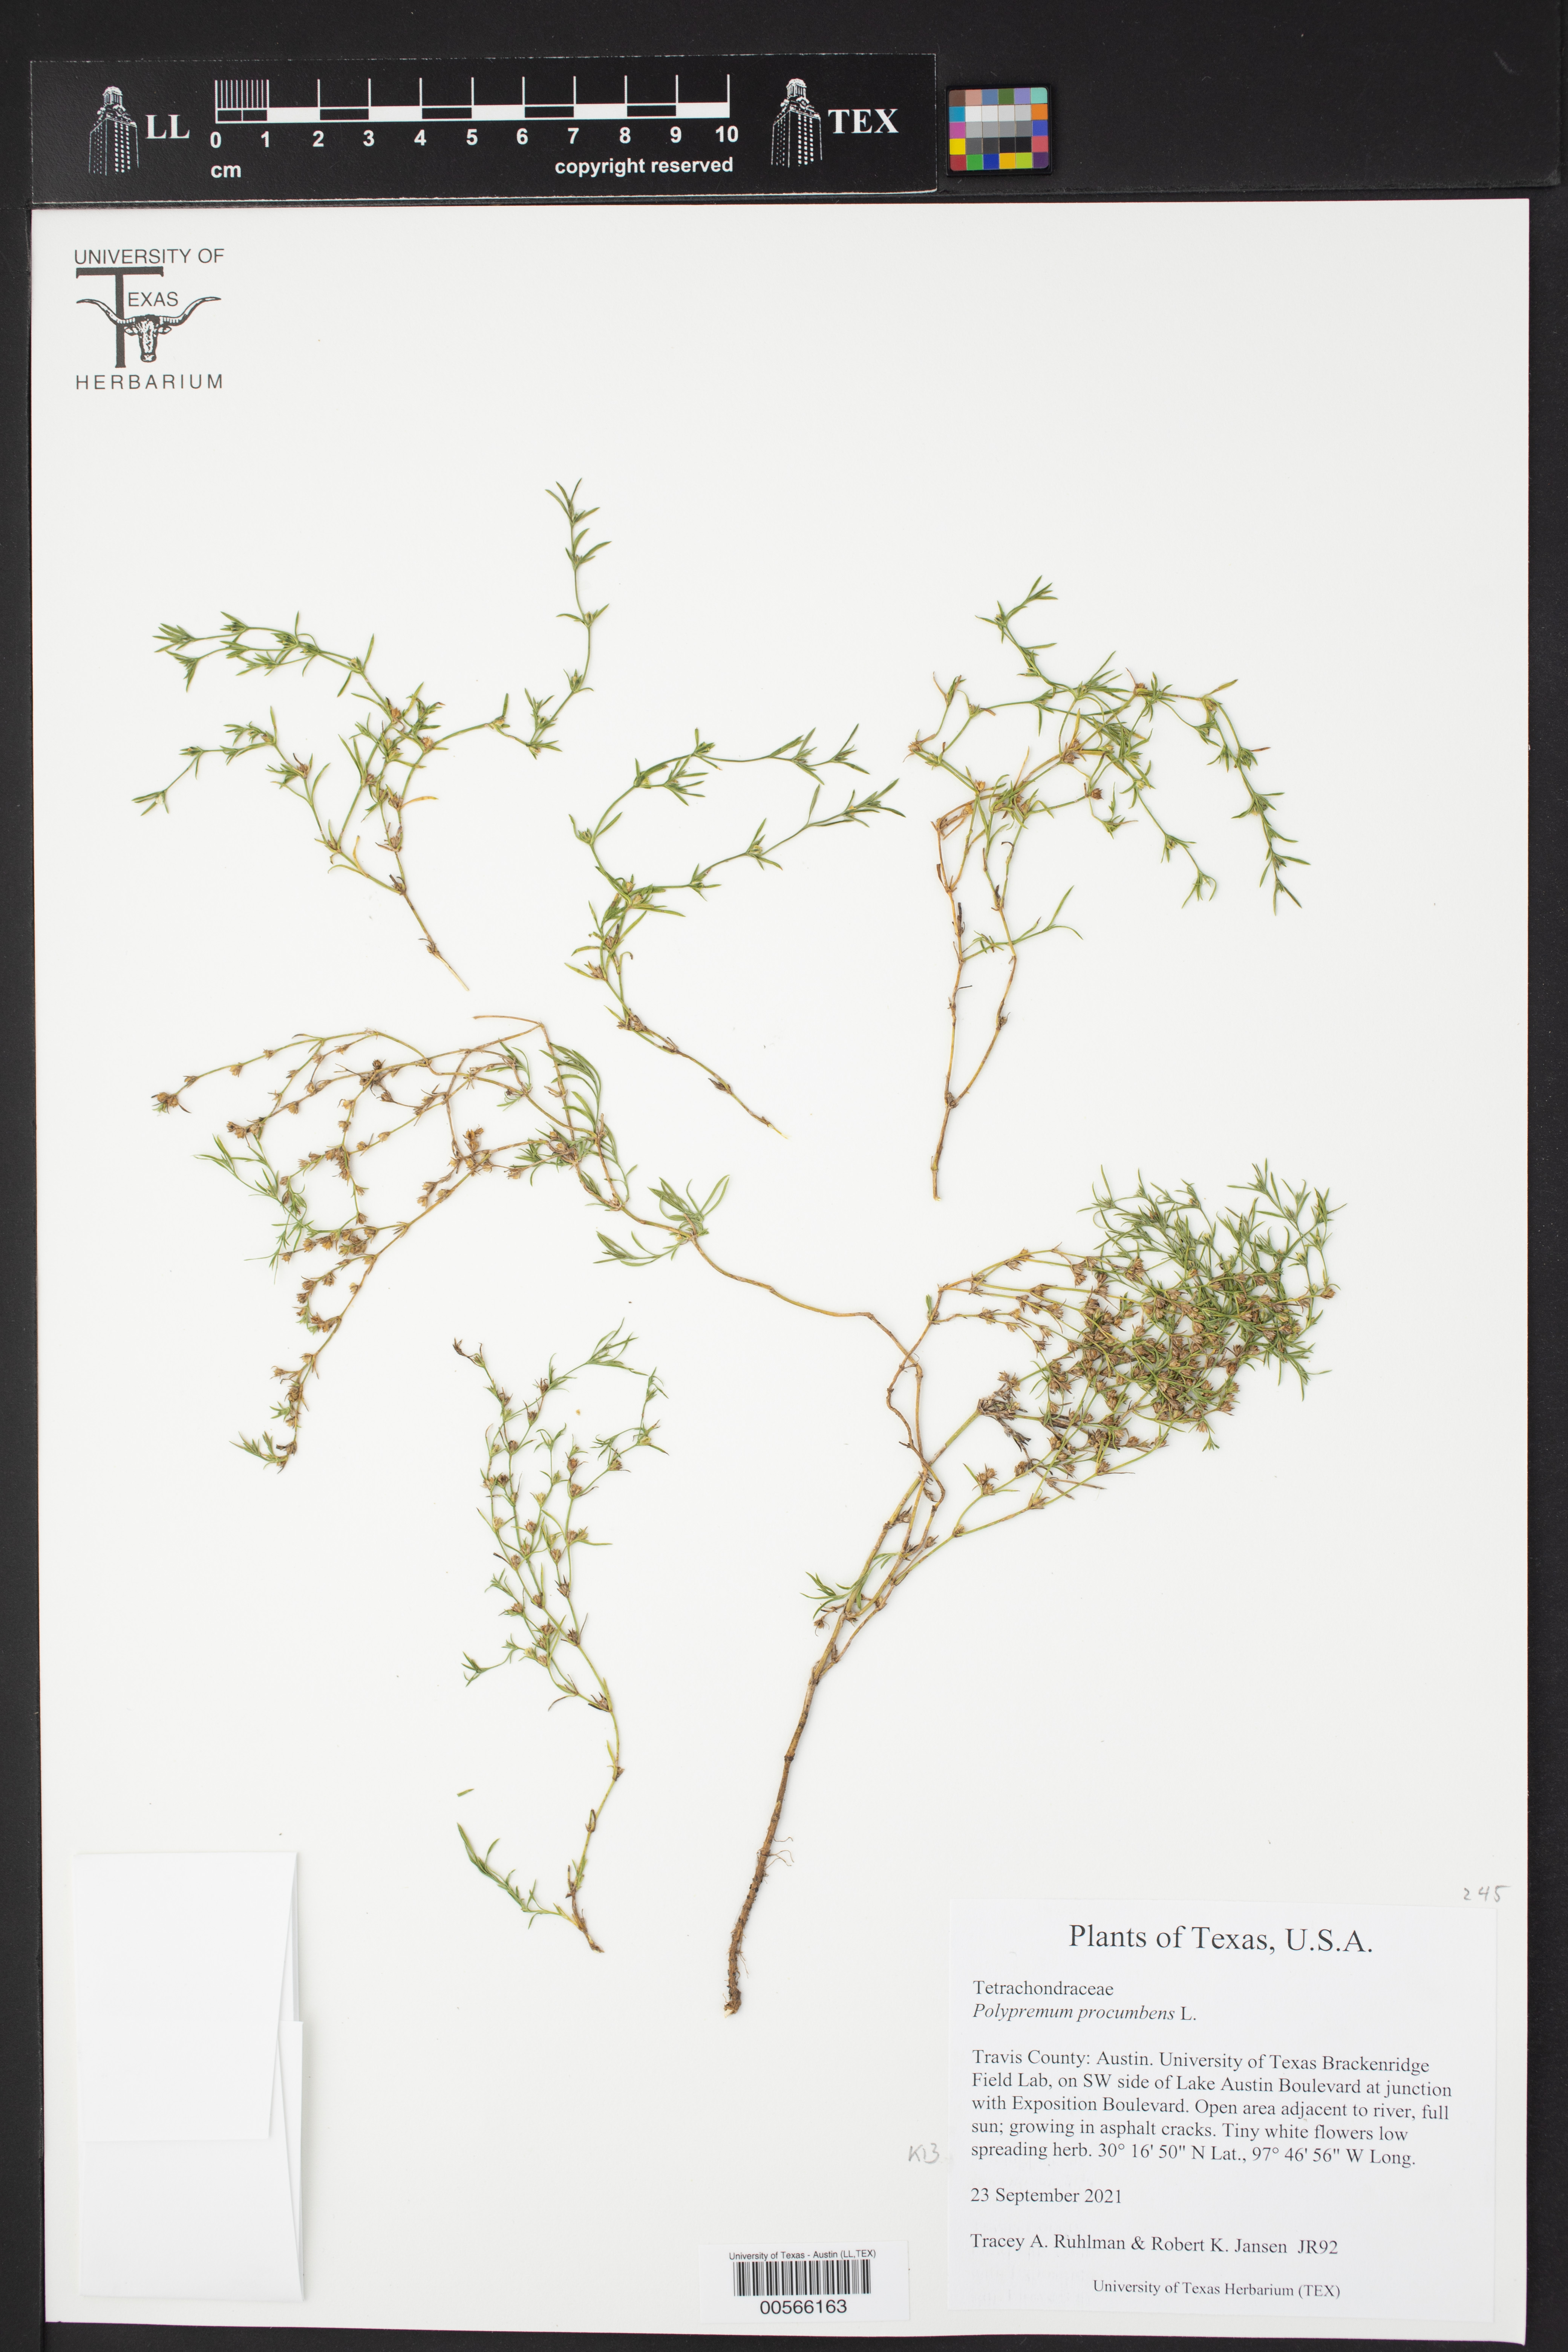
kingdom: Plantae
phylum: Tracheophyta
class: Magnoliopsida
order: Lamiales
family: Tetrachondraceae
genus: Polypremum
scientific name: Polypremum procumbens
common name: Juniper-leaf
